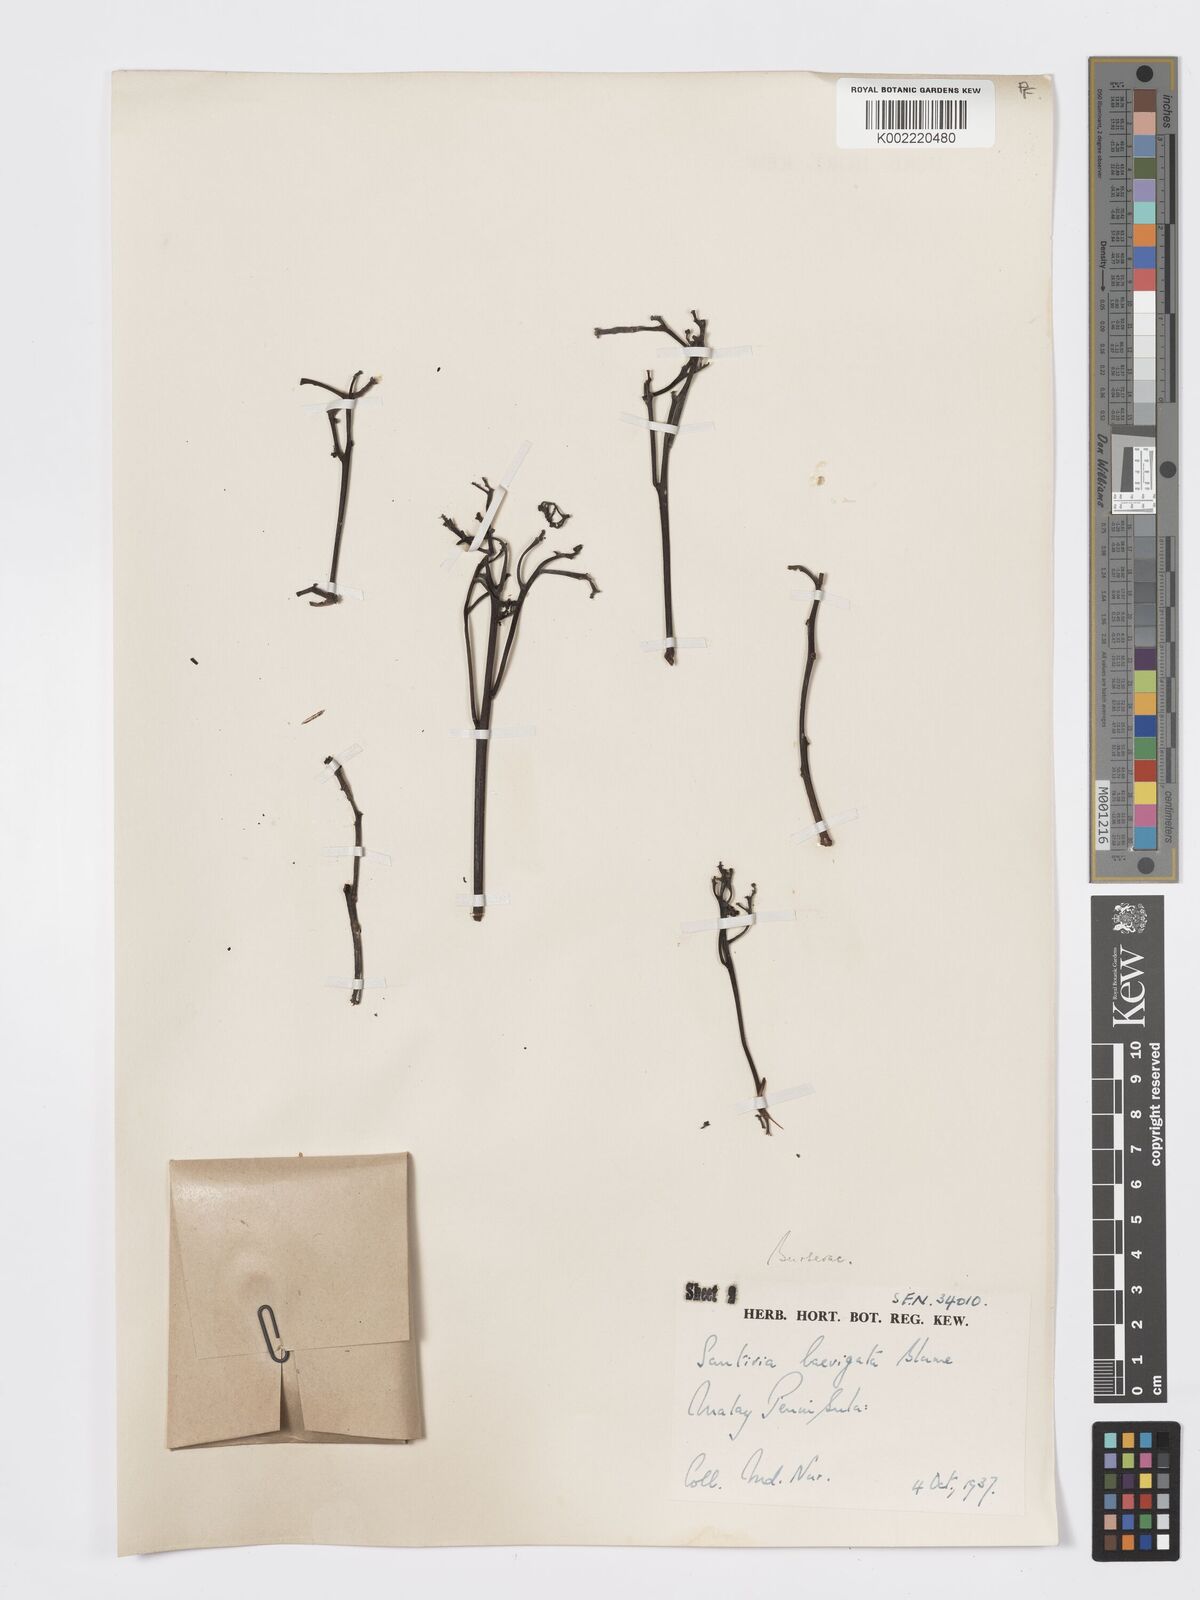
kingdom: Plantae
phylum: Tracheophyta
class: Magnoliopsida
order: Sapindales
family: Burseraceae
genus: Santiria
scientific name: Santiria laevigata
